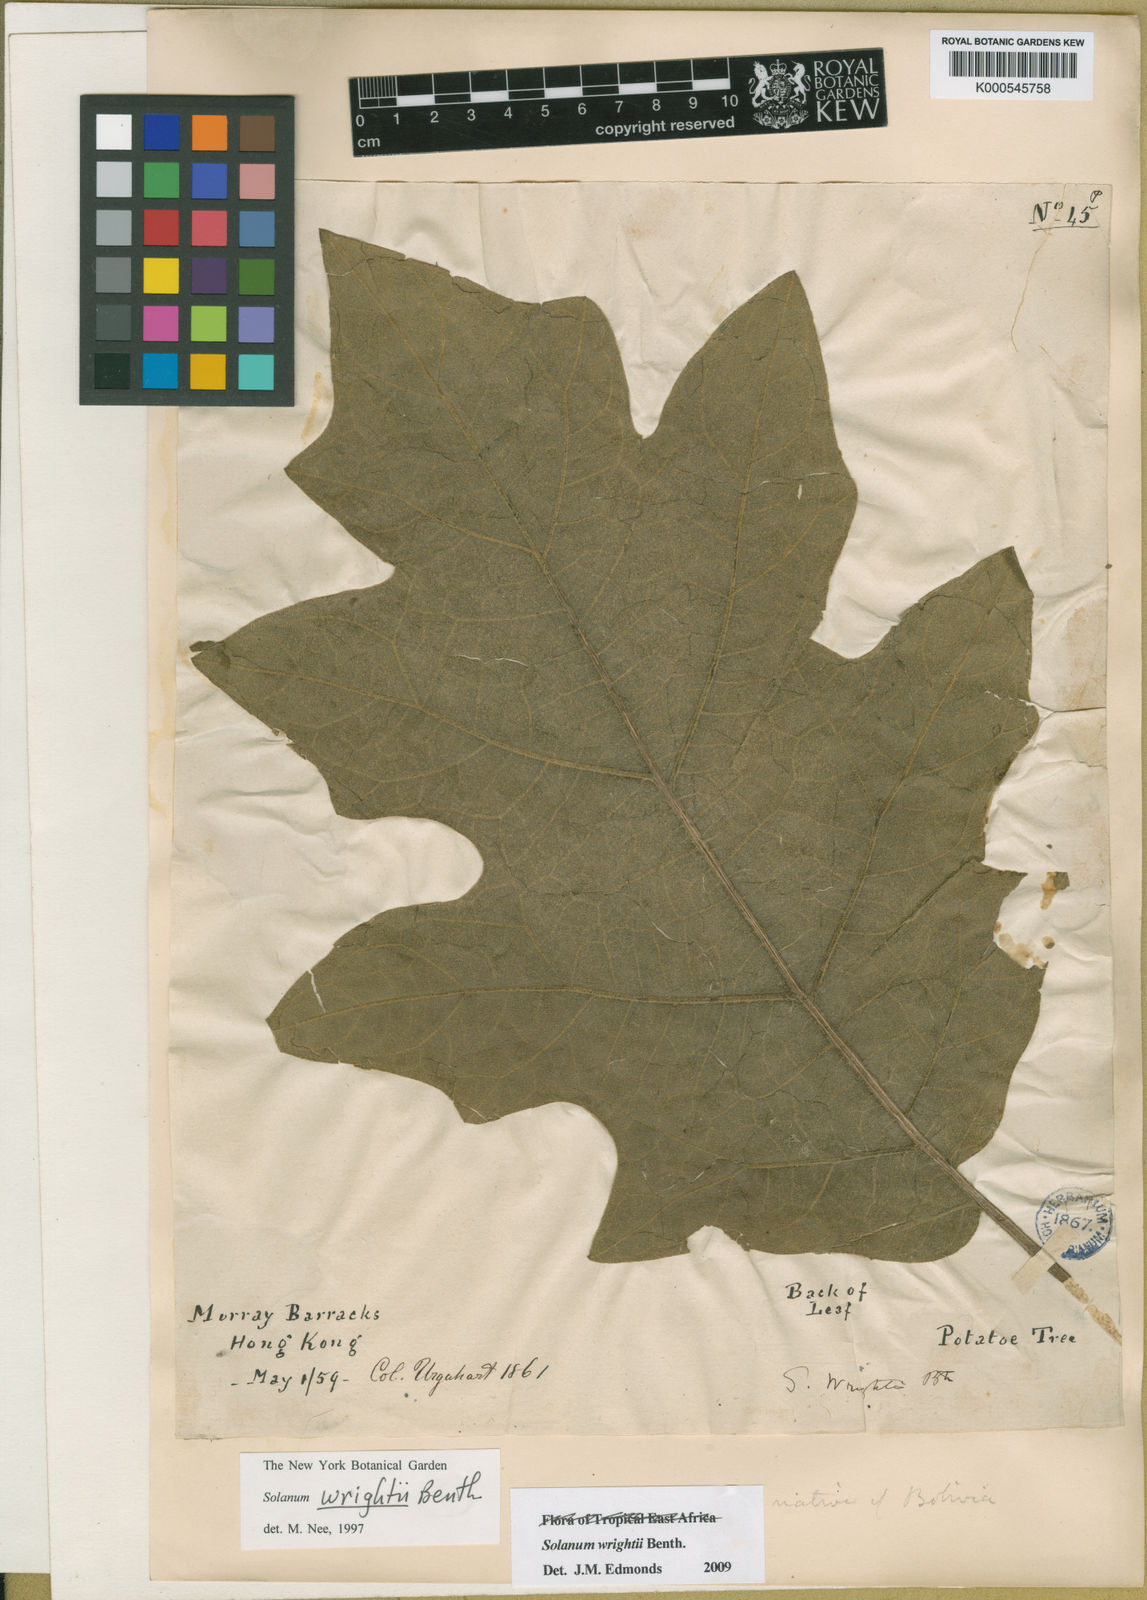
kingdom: Plantae
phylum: Tracheophyta
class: Magnoliopsida
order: Solanales
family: Solanaceae
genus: Solanum
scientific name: Solanum wrightii
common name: Brazilian potato-tree
